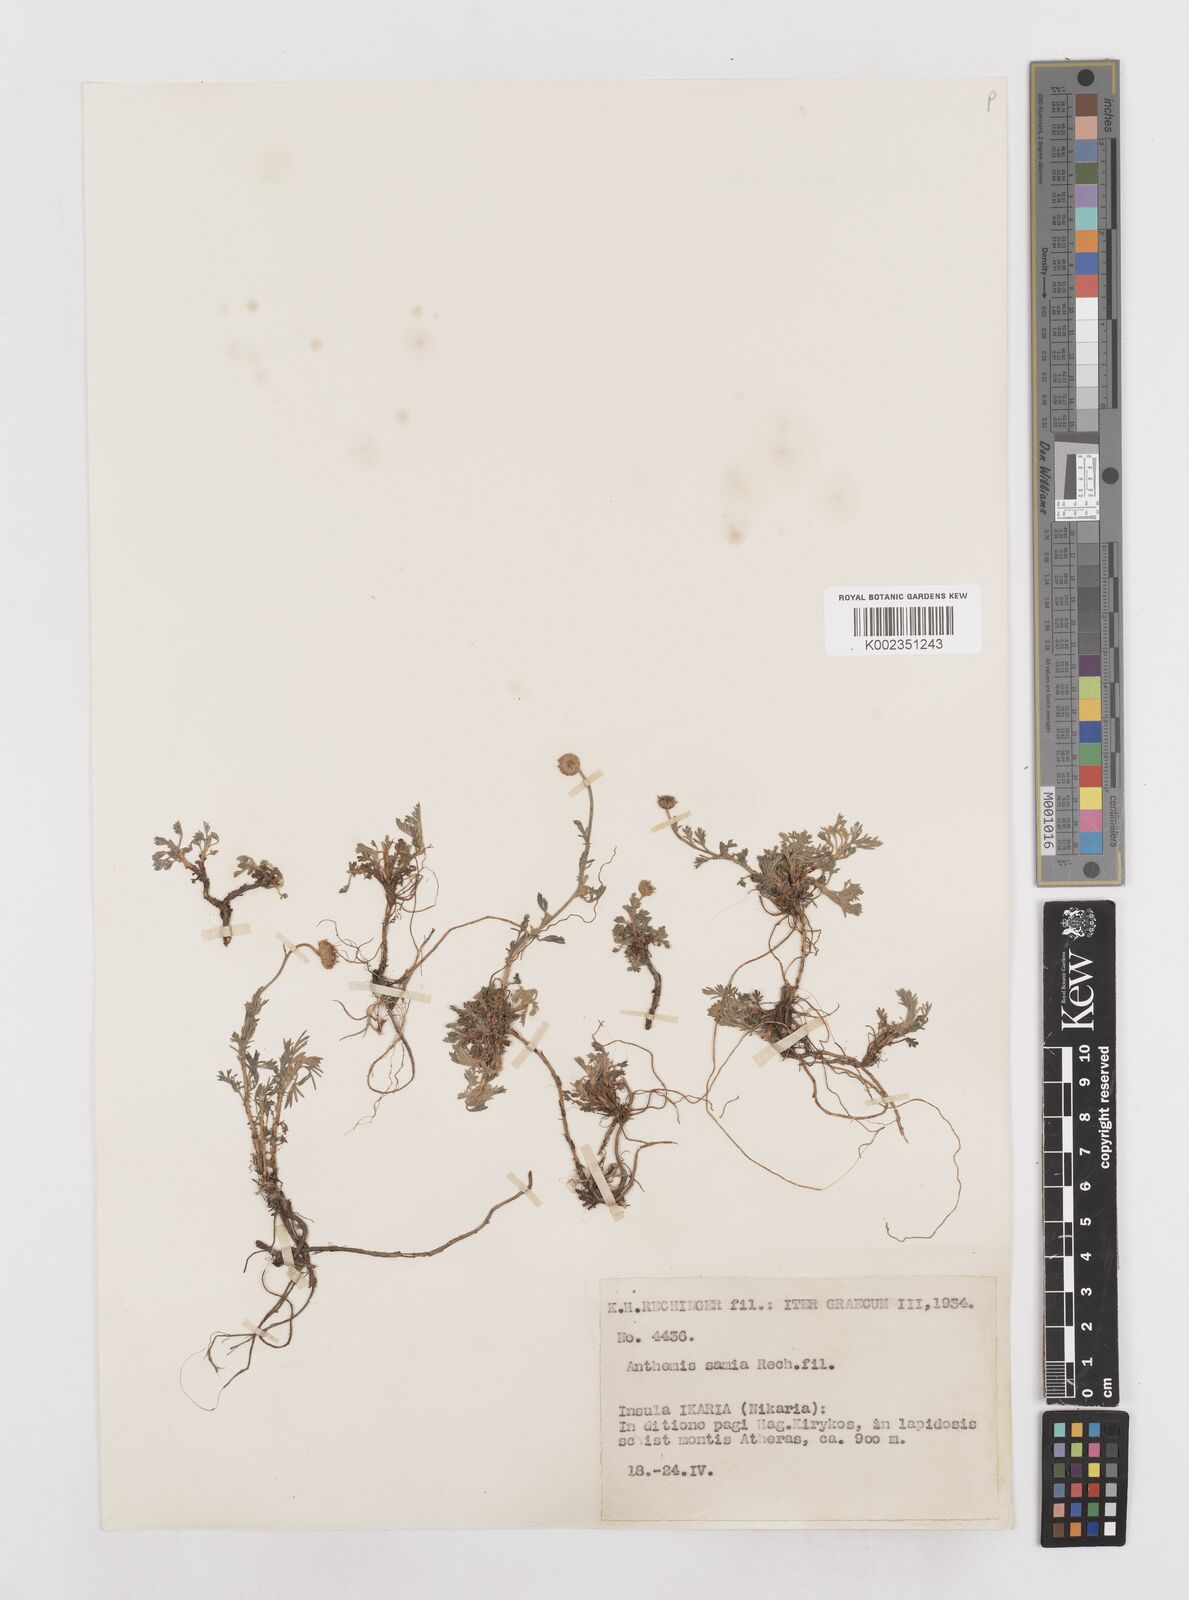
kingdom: Plantae
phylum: Tracheophyta
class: Magnoliopsida
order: Asterales
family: Asteraceae
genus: Anthemis
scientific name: Anthemis cretica
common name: Mountain dog-daisy
